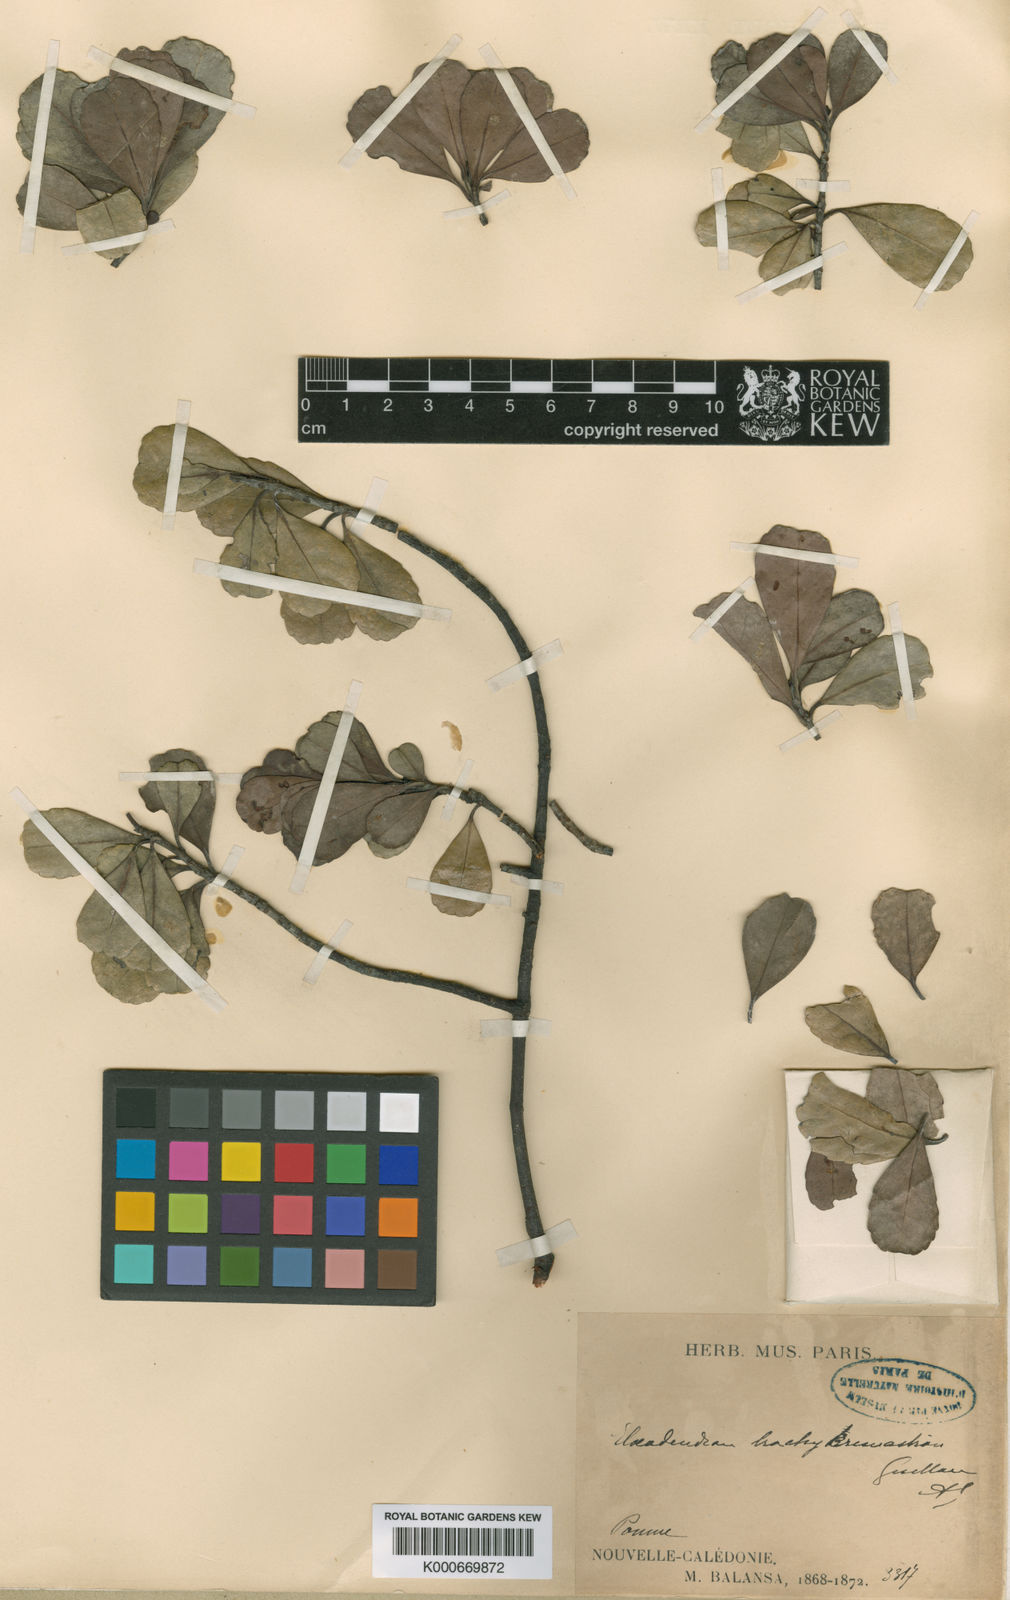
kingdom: Plantae
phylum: Tracheophyta
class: Magnoliopsida
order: Celastrales
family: Celastraceae
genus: Elaeodendron
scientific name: Elaeodendron brachycremastron
